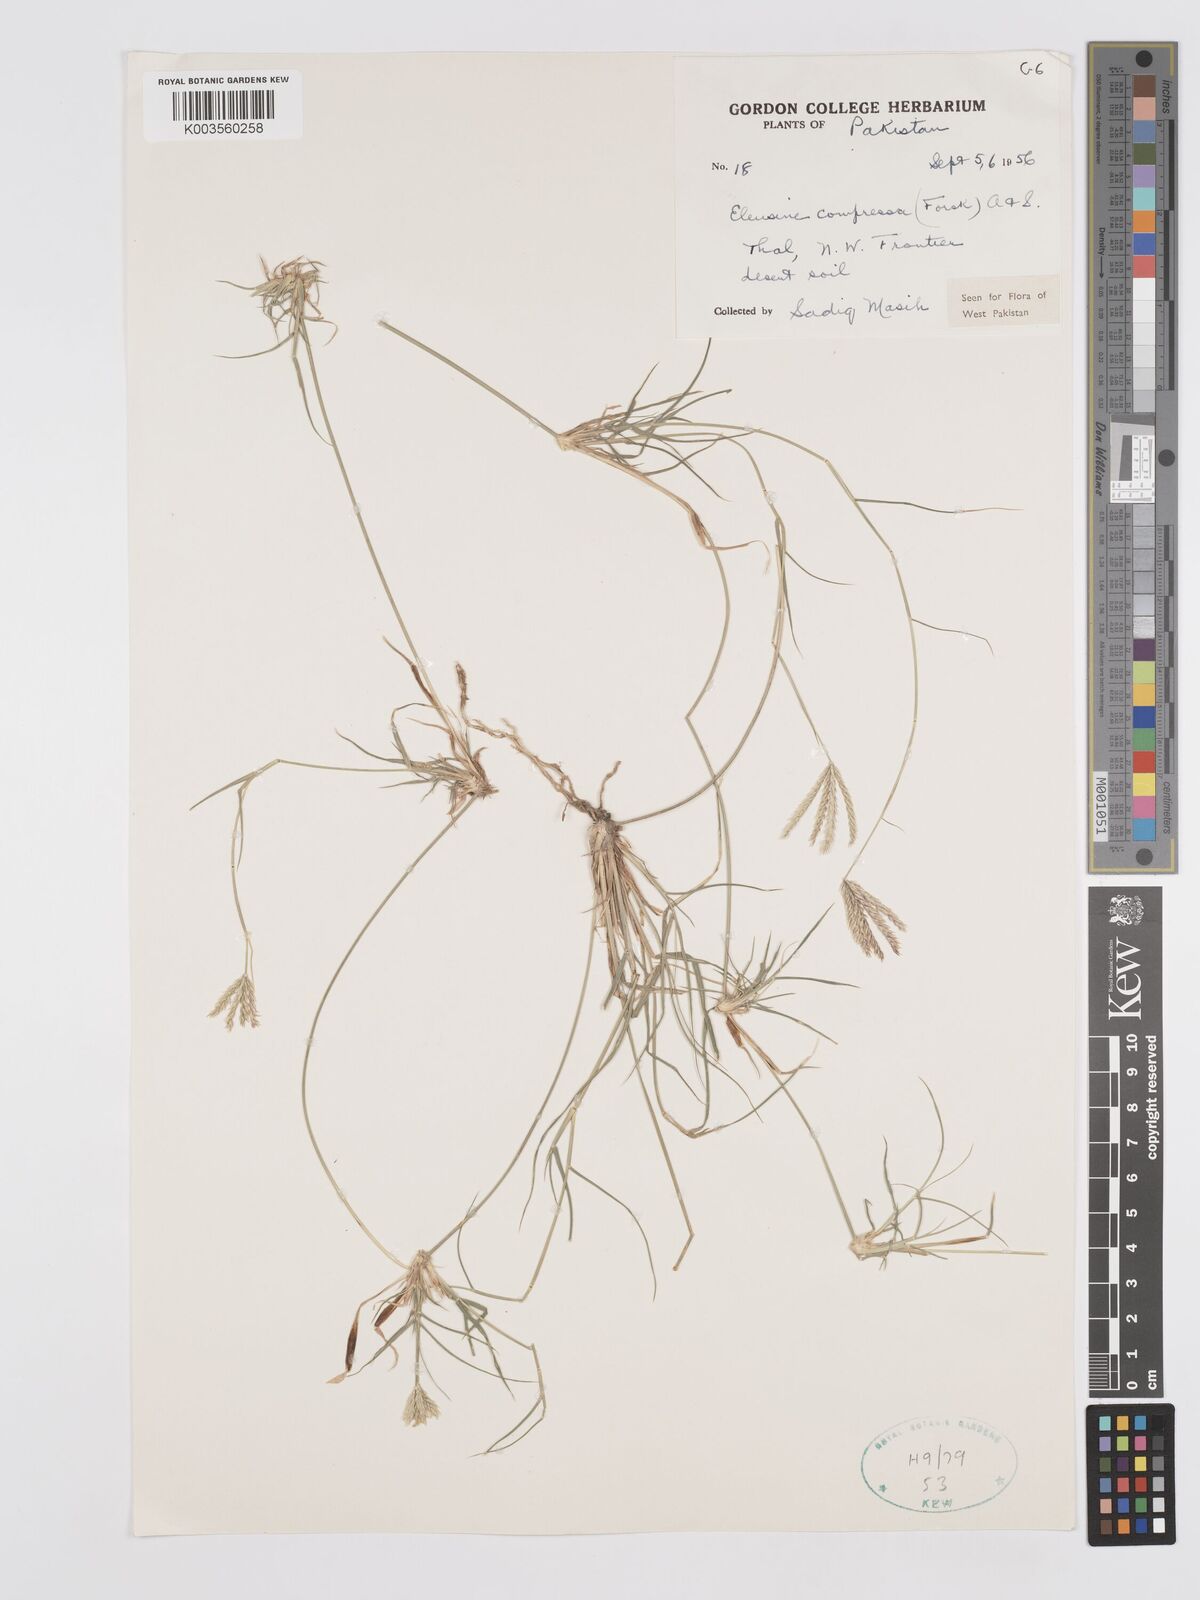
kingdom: Plantae
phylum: Tracheophyta
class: Liliopsida
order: Poales
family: Poaceae
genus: Chloris
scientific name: Chloris flagellifera
